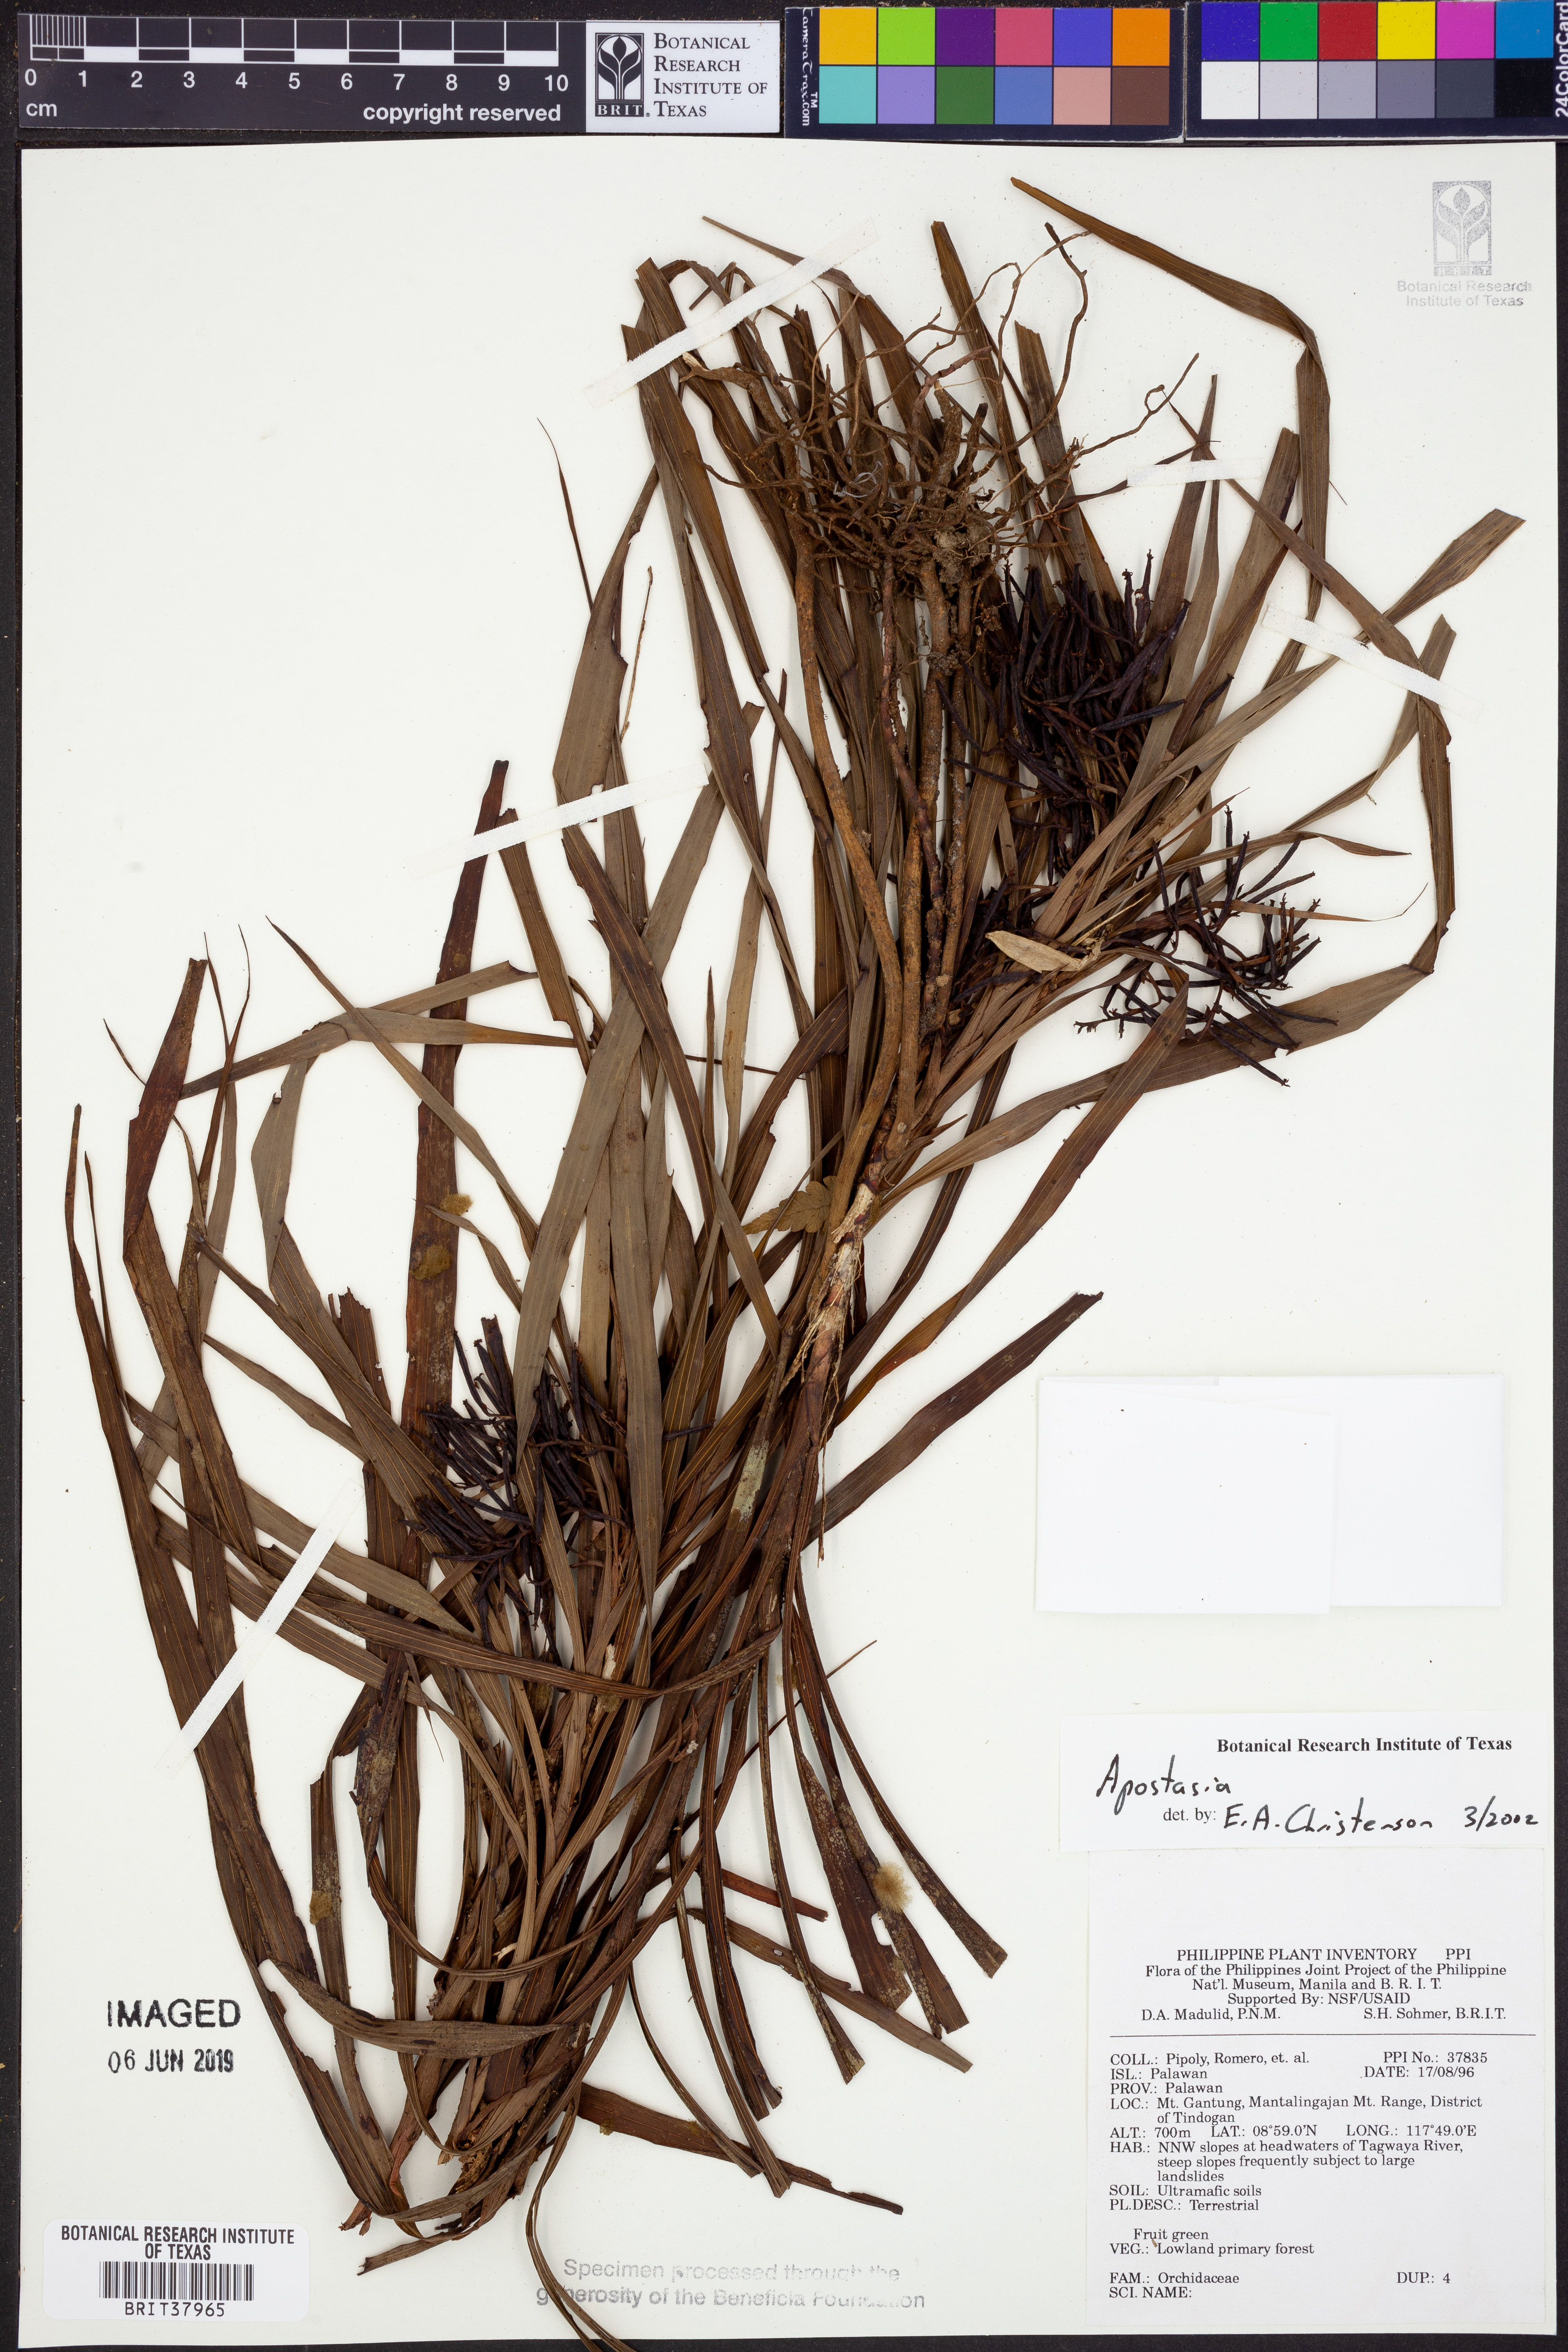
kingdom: Plantae
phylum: Tracheophyta
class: Liliopsida
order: Asparagales
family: Orchidaceae
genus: Apostasia
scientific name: Apostasia
